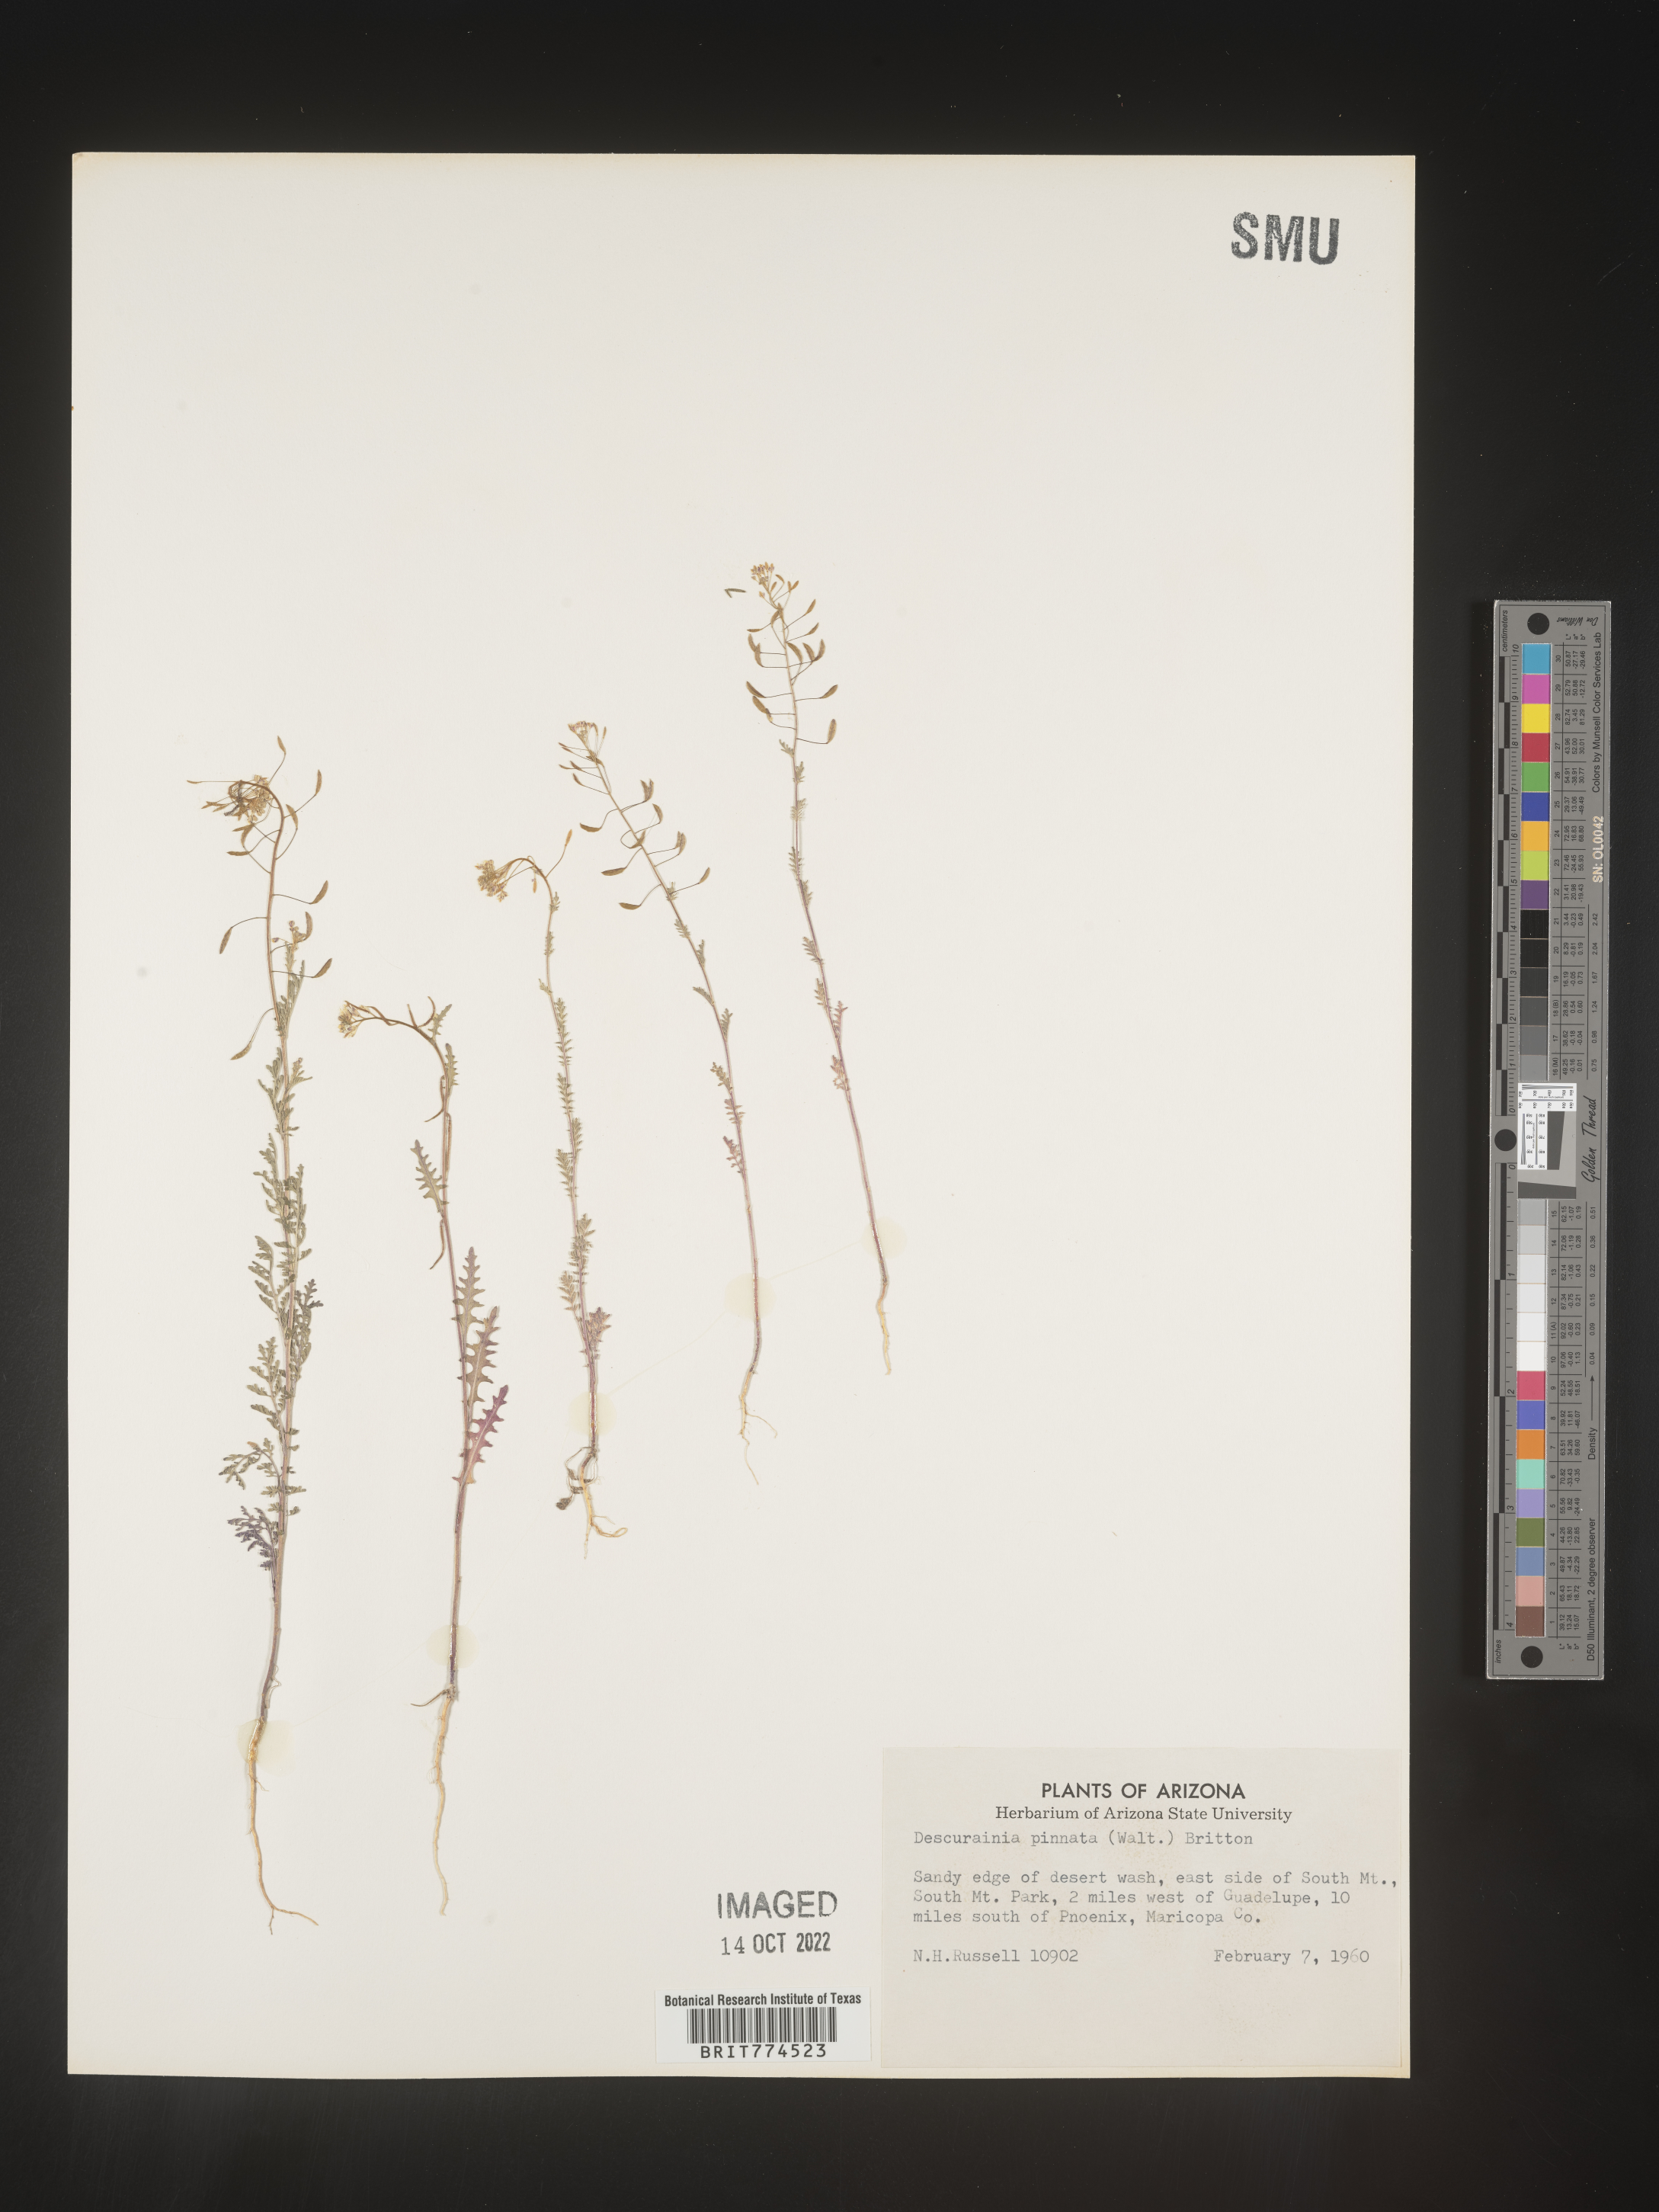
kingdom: Plantae
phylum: Tracheophyta
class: Magnoliopsida
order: Brassicales
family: Brassicaceae
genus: Descurainia
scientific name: Descurainia pinnata
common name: Western tansy mustard
